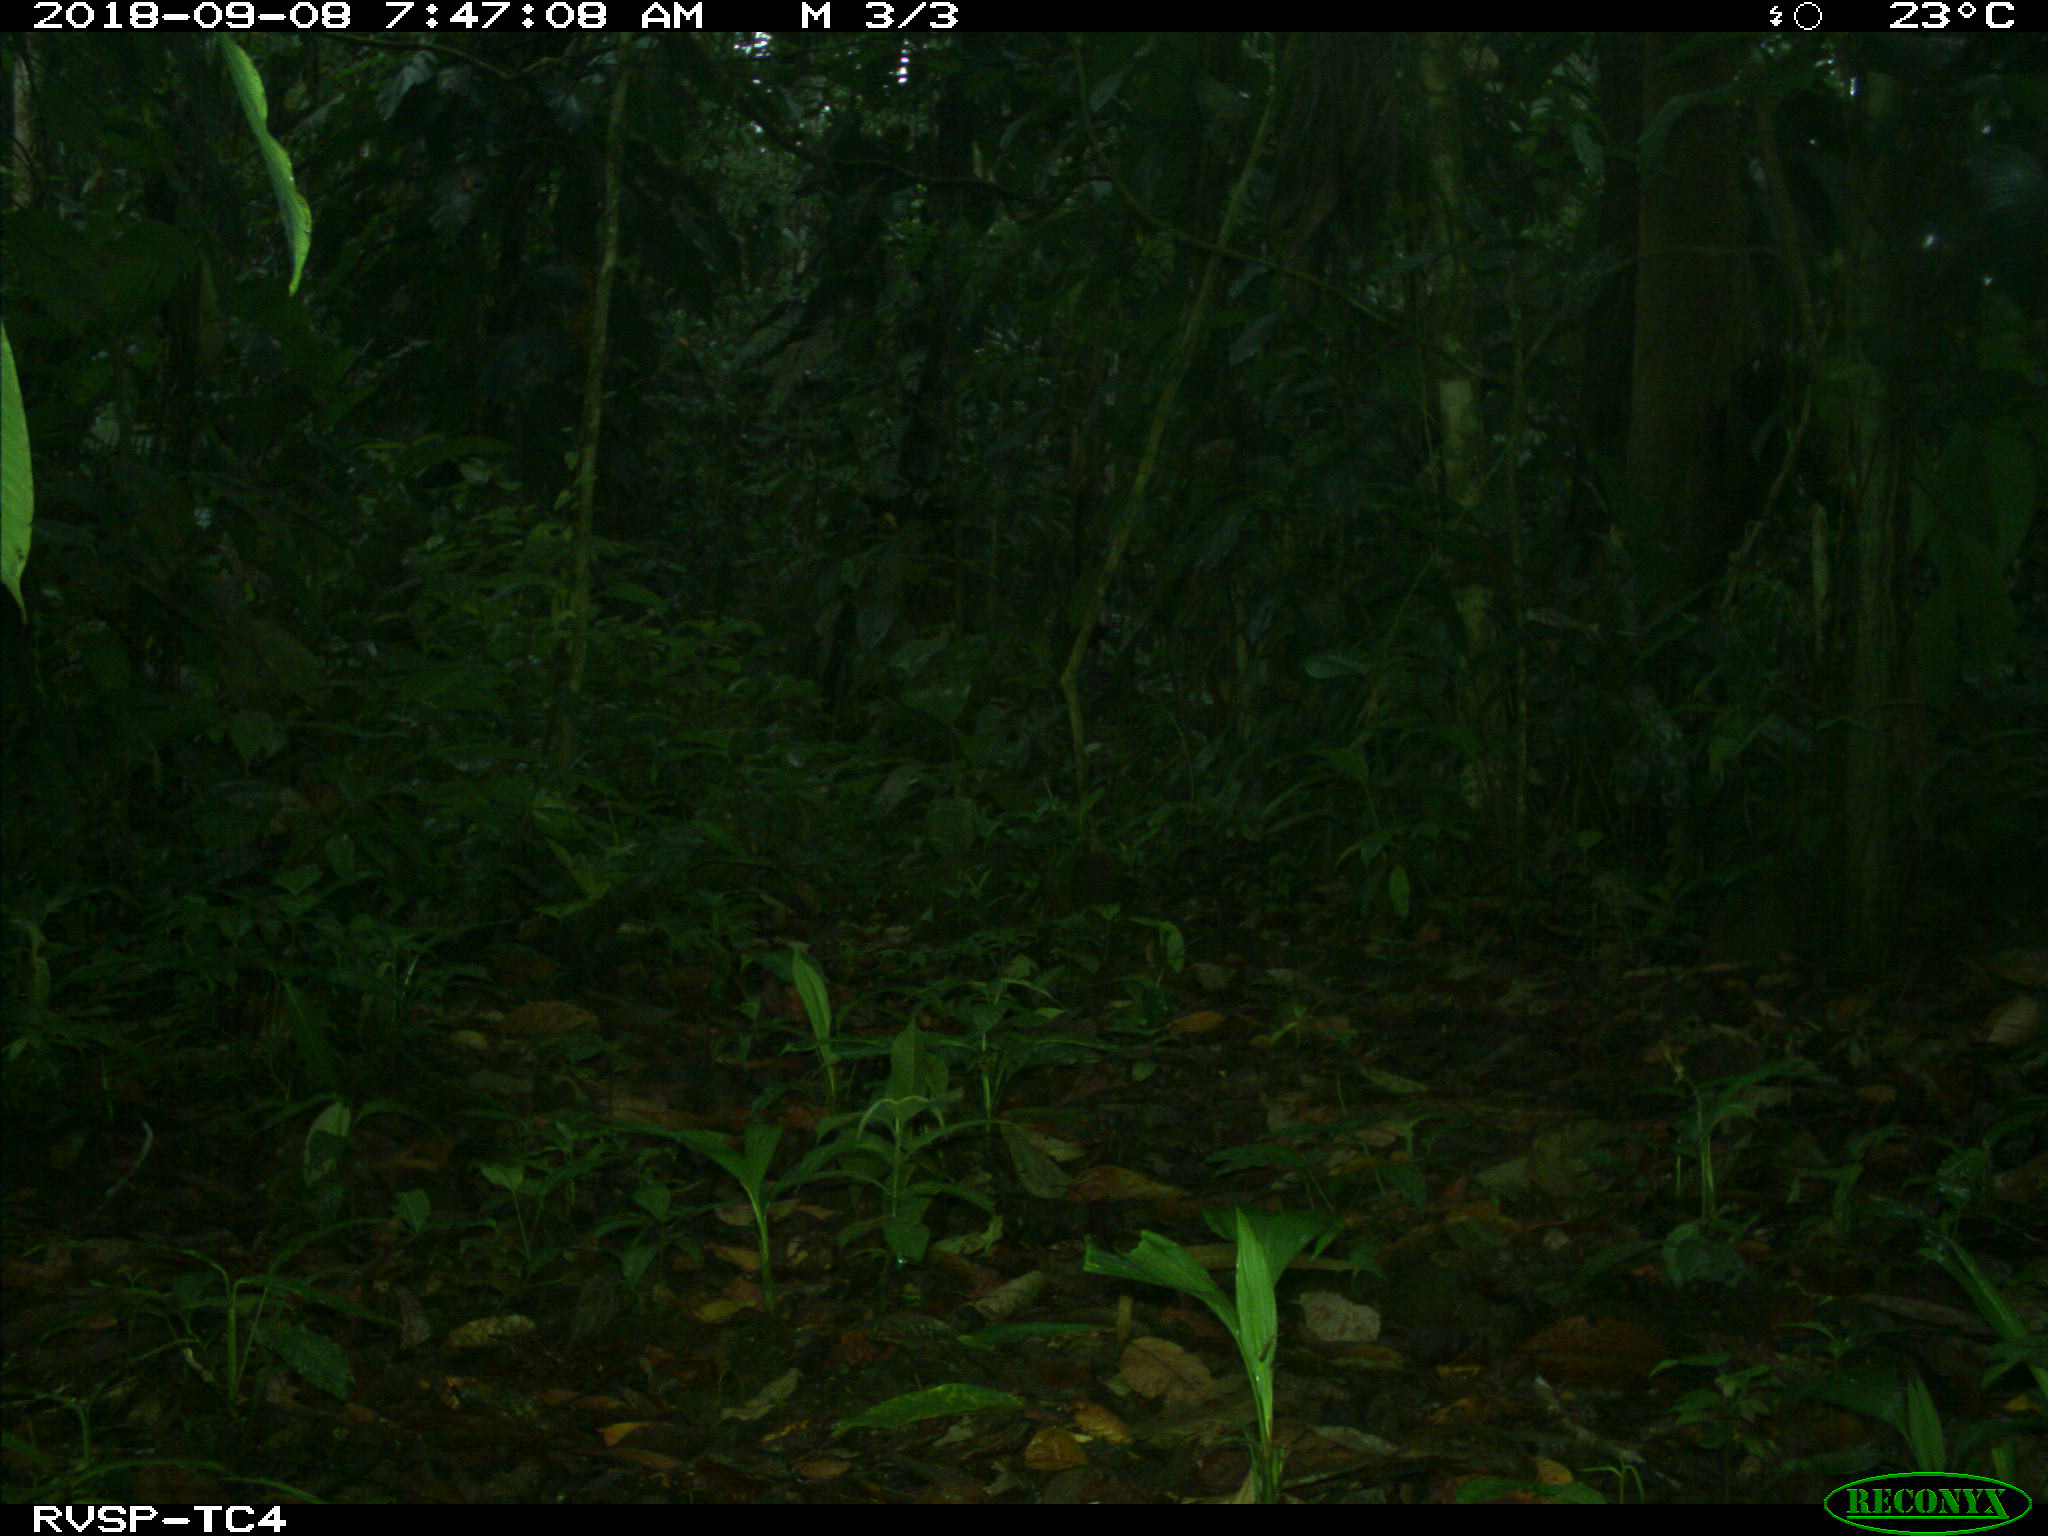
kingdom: Animalia
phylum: Chordata
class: Mammalia
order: Rodentia
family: Dasyproctidae
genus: Dasyprocta
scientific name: Dasyprocta punctata
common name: Central american agouti
